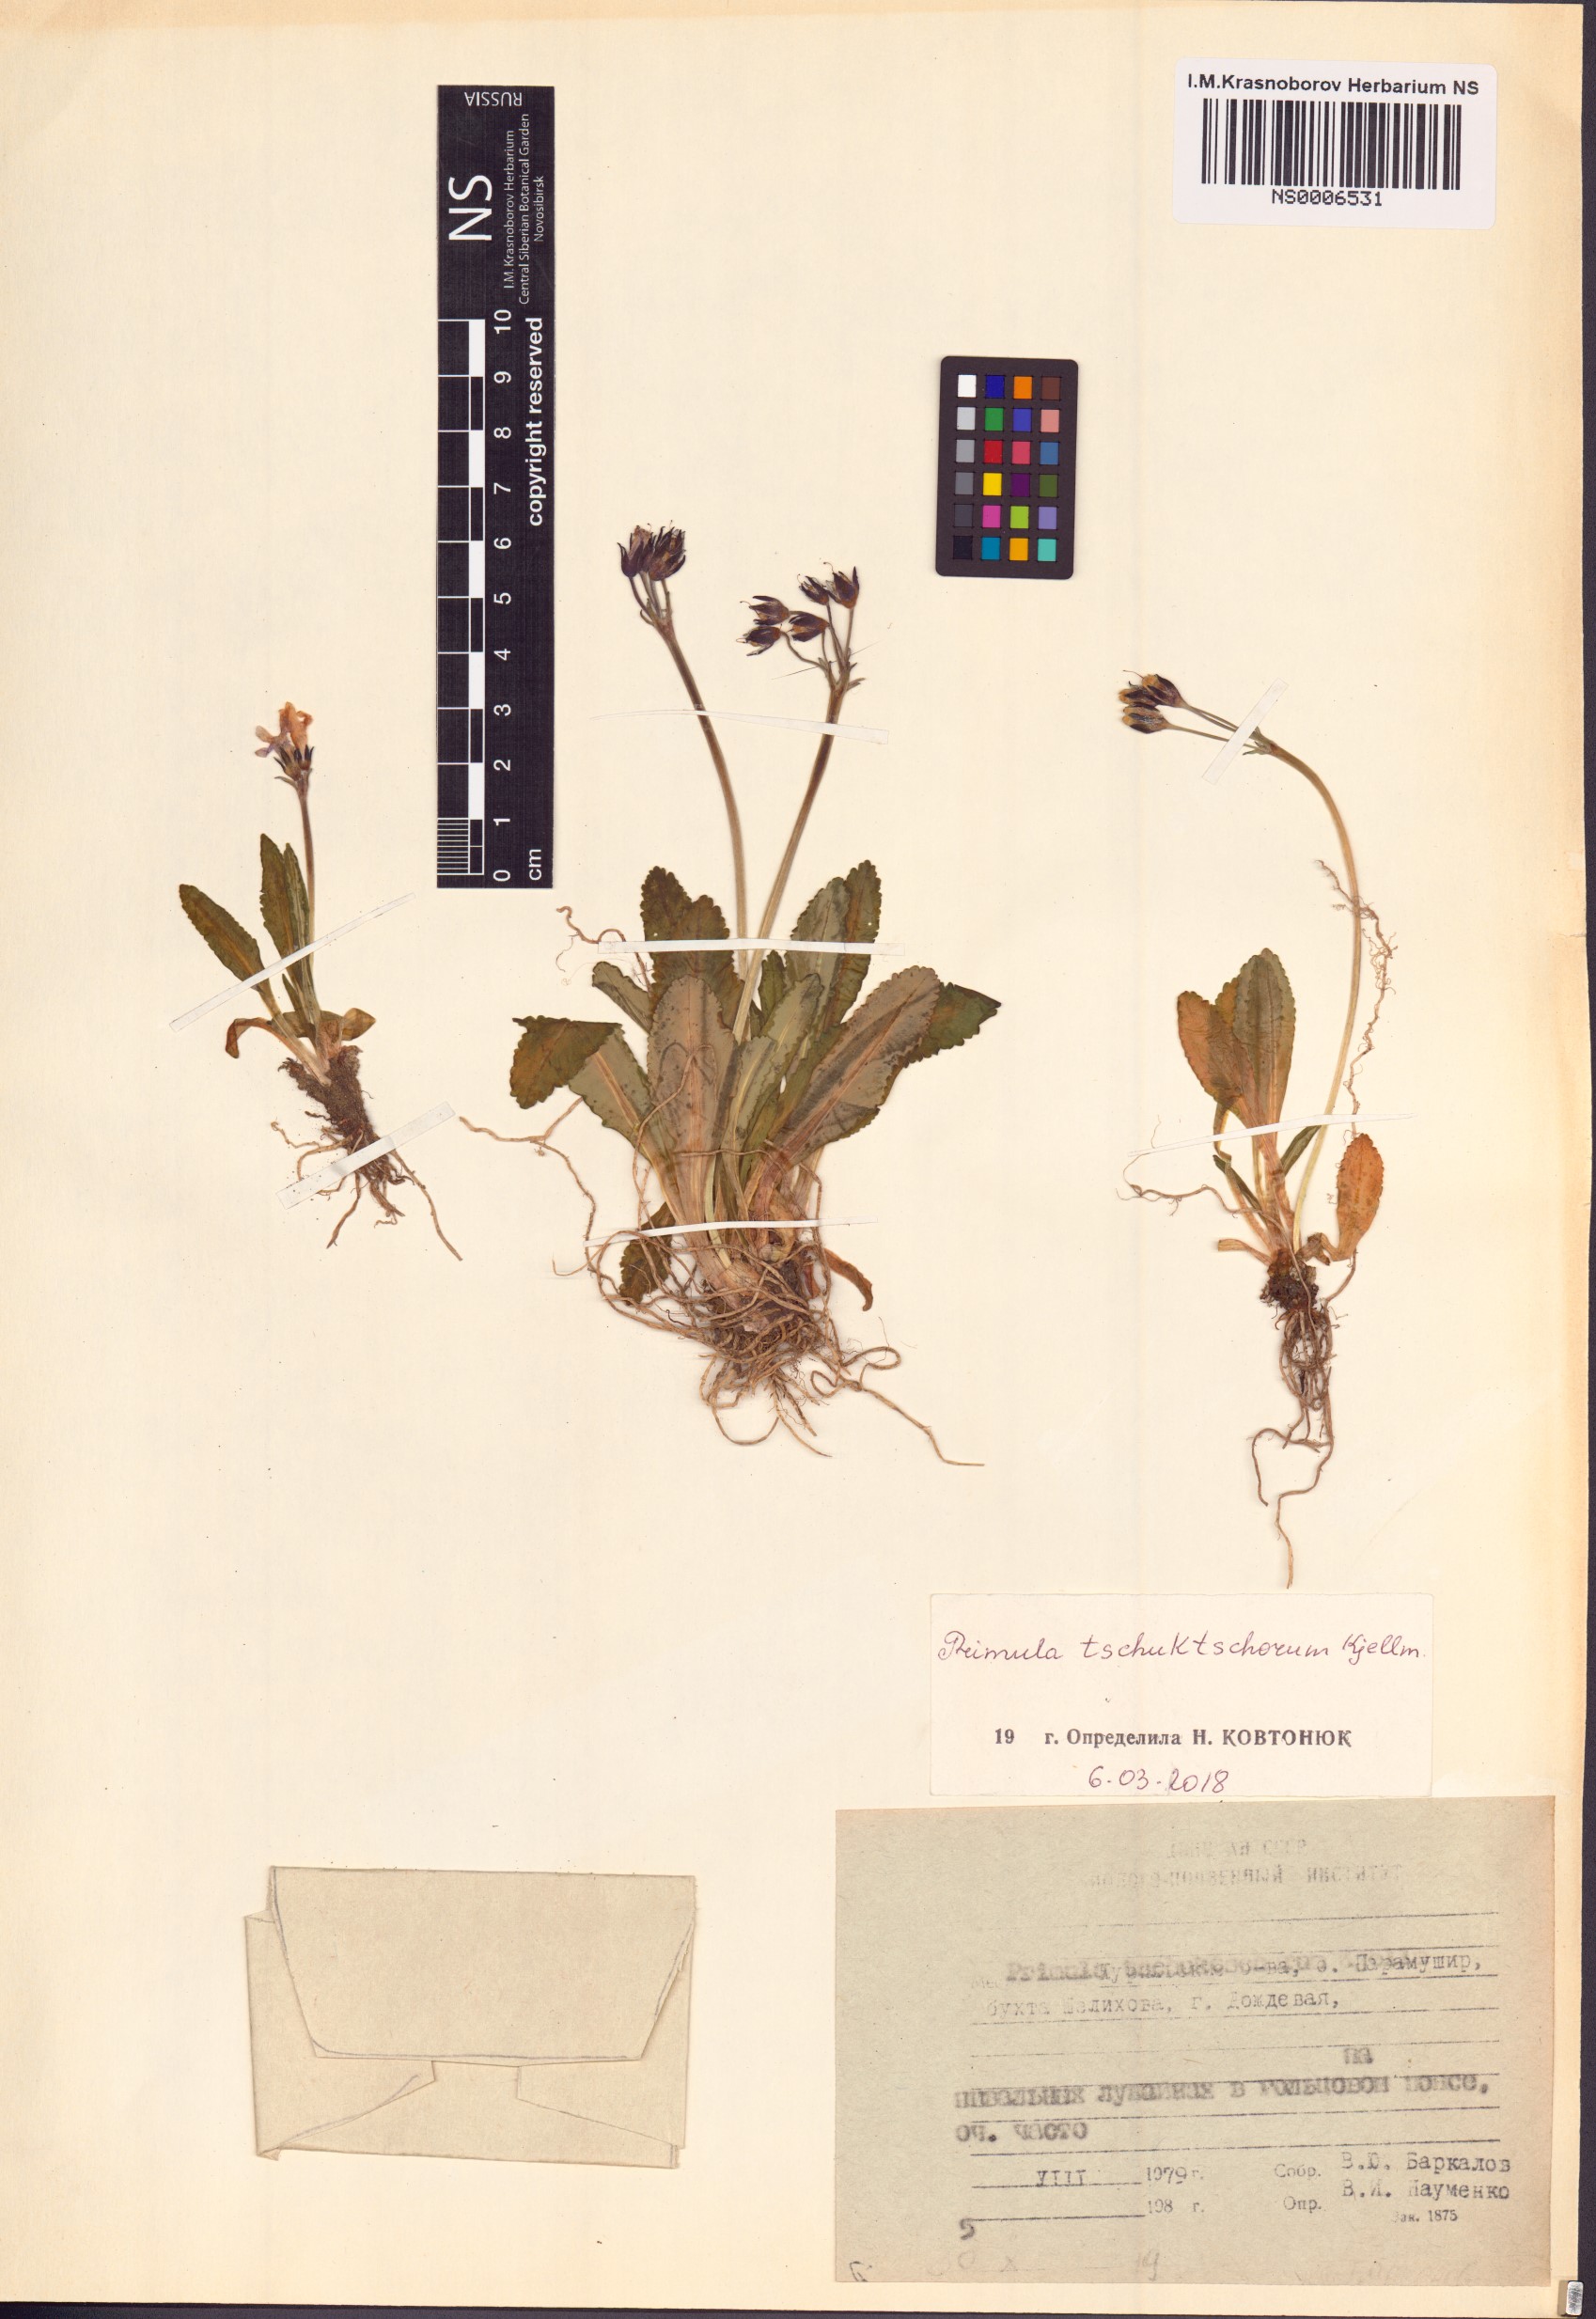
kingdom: Plantae
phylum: Tracheophyta
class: Magnoliopsida
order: Ericales
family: Primulaceae
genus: Primula
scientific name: Primula tschuktschorum
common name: Chukchi primrose
